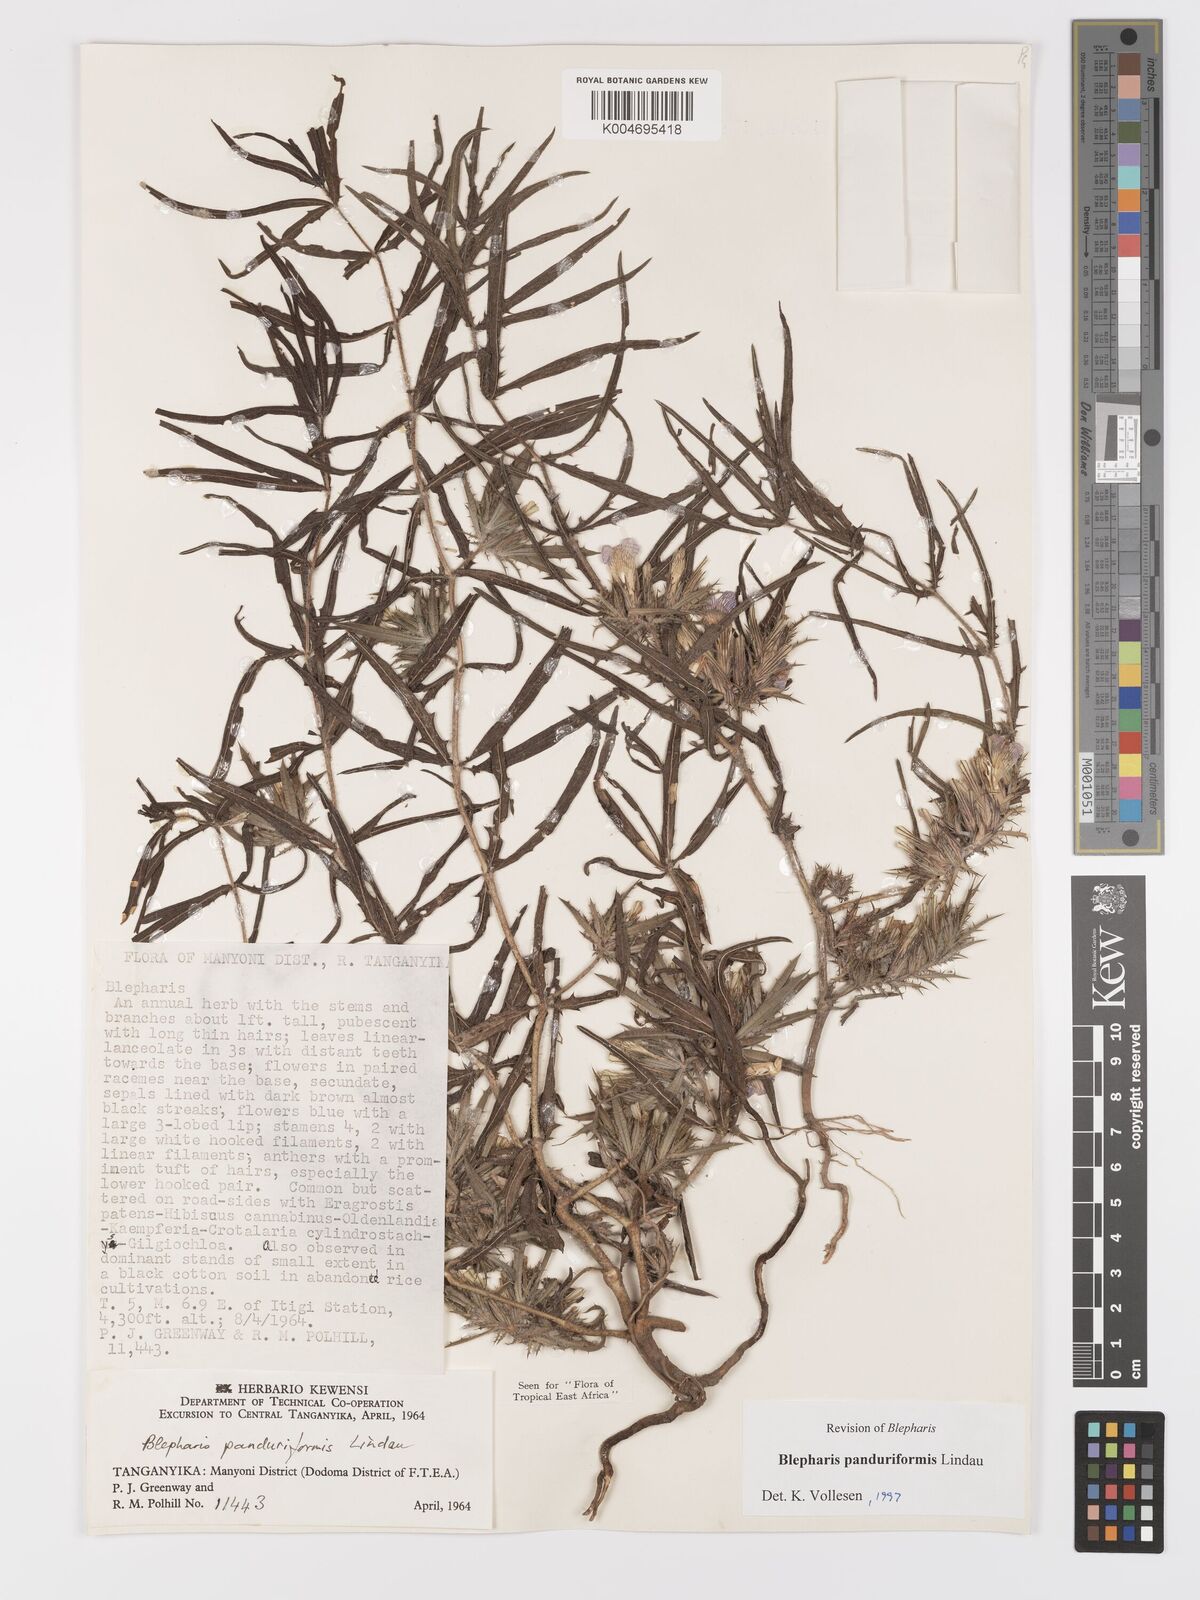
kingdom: Plantae
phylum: Tracheophyta
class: Magnoliopsida
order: Lamiales
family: Acanthaceae
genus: Blepharis
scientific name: Blepharis panduriformis
